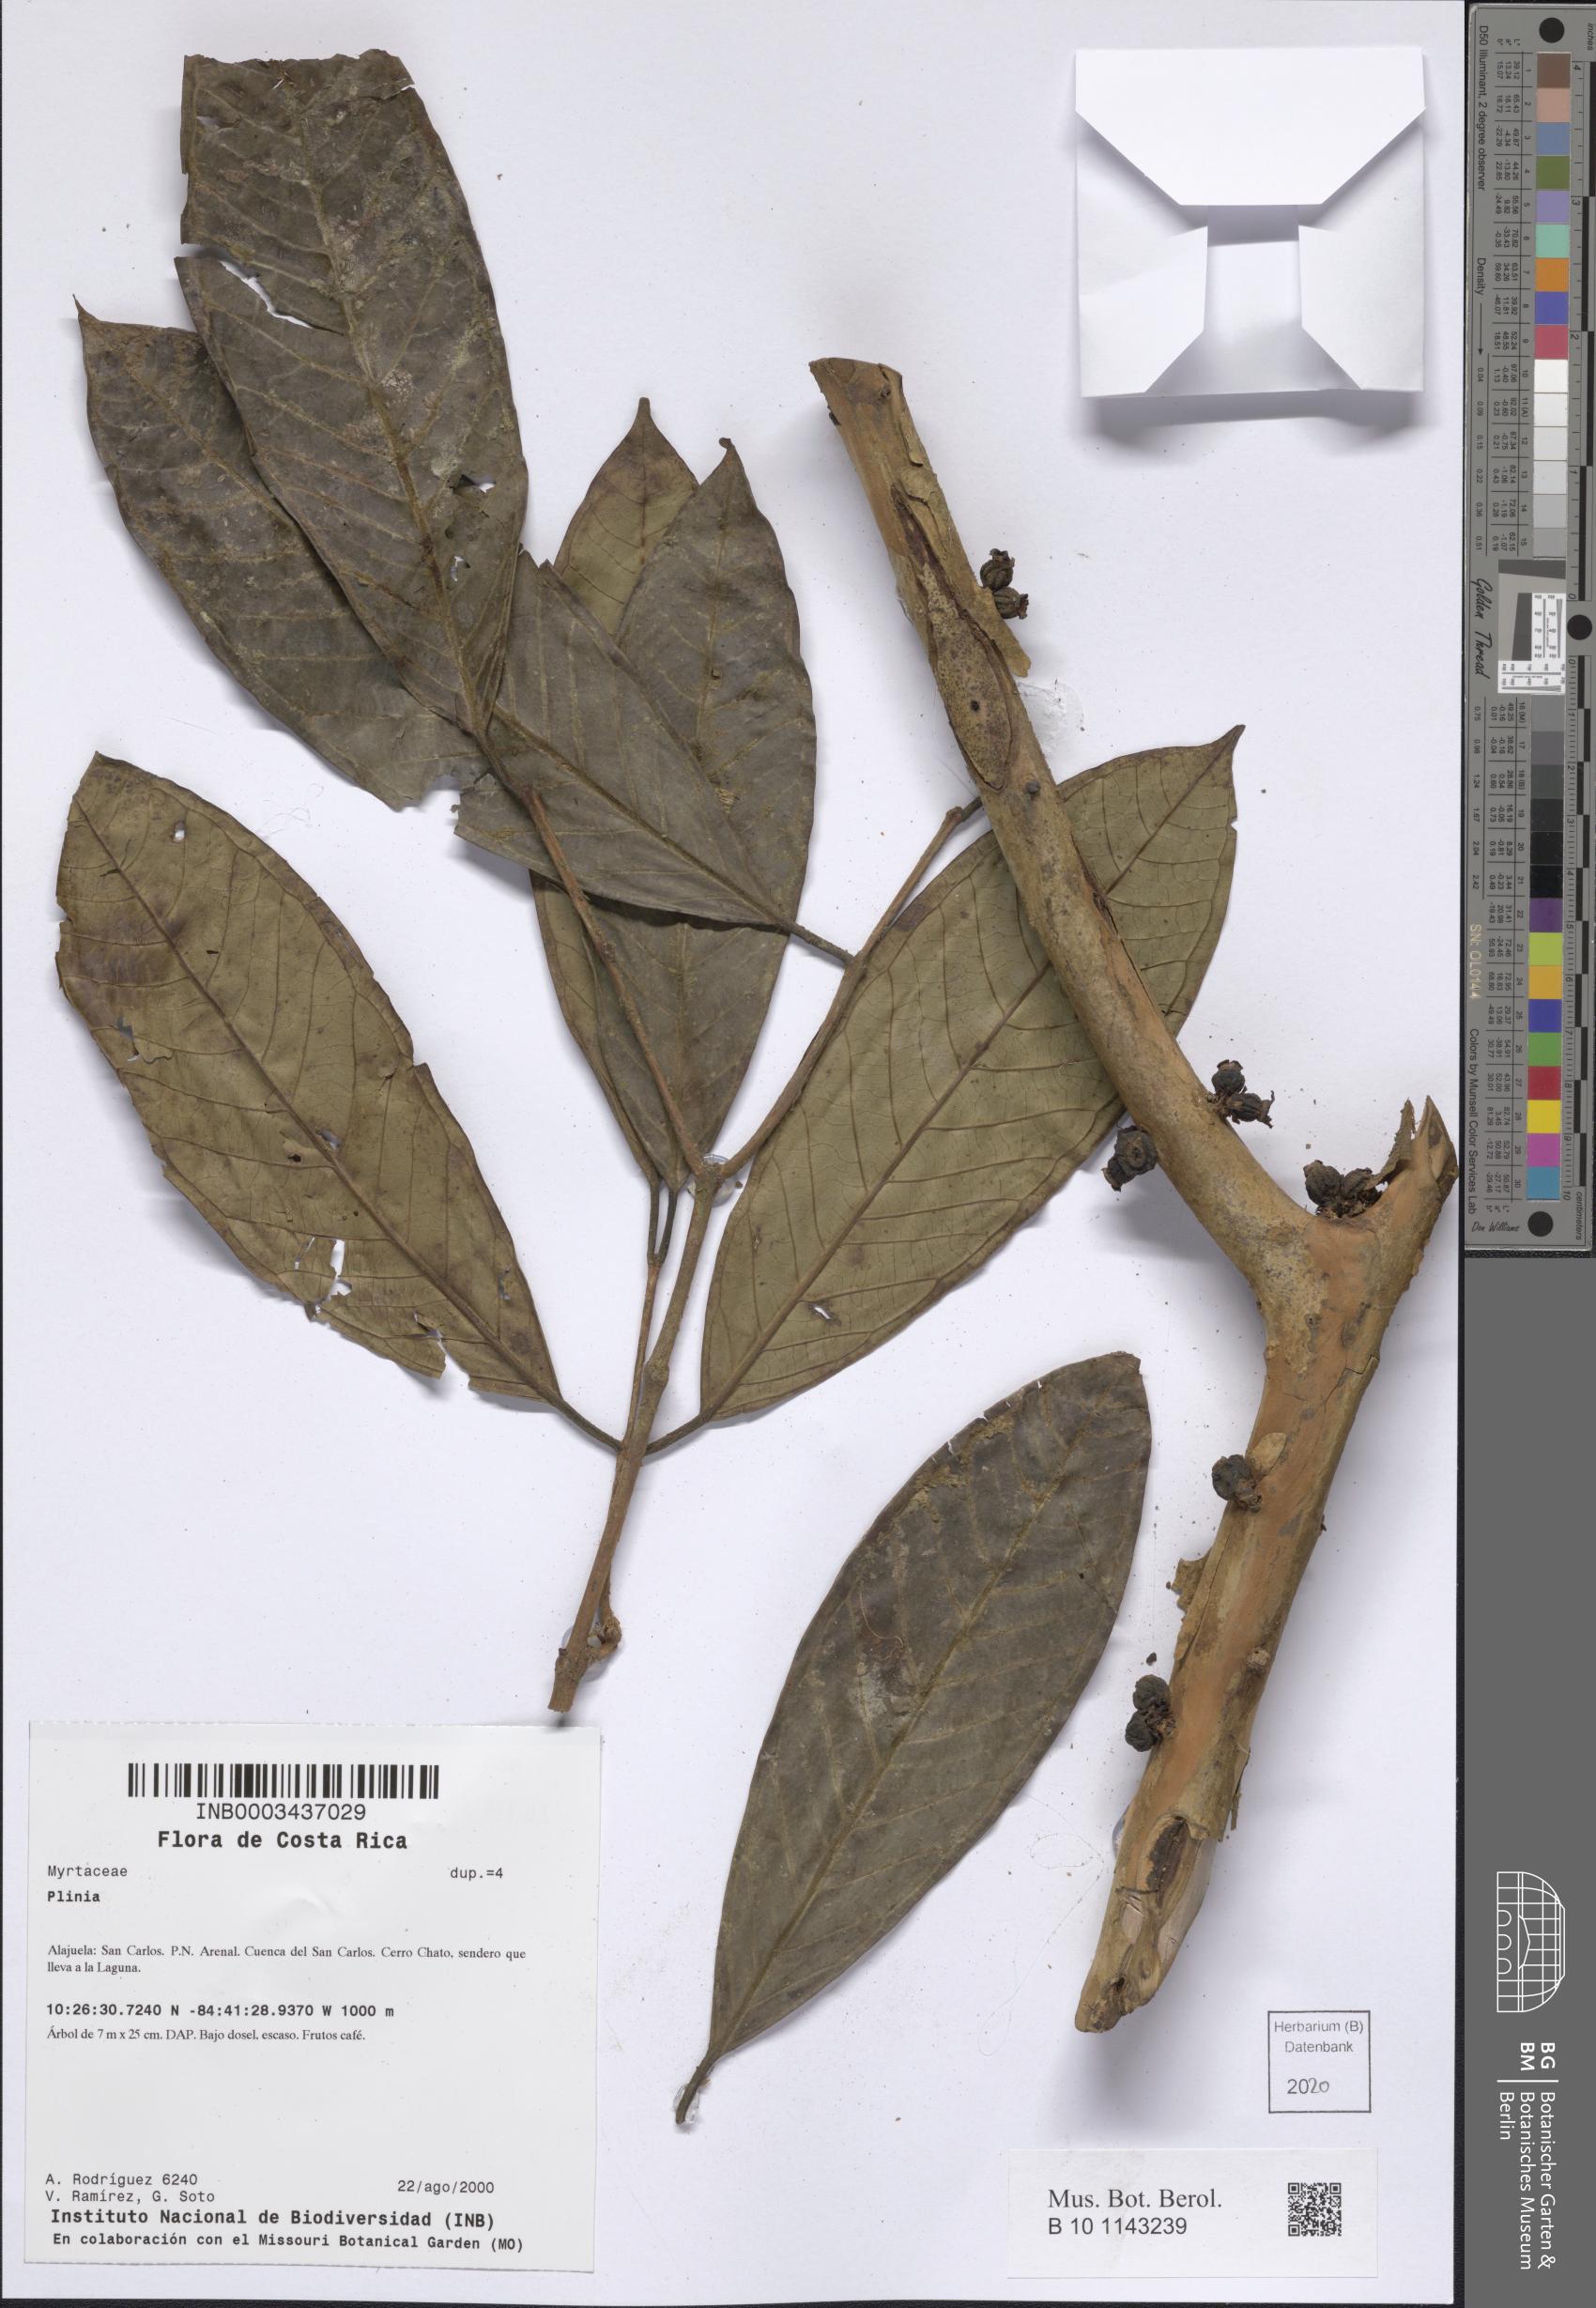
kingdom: Plantae
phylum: Tracheophyta
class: Magnoliopsida
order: Myrtales
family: Myrtaceae
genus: Plinia
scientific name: Plinia
